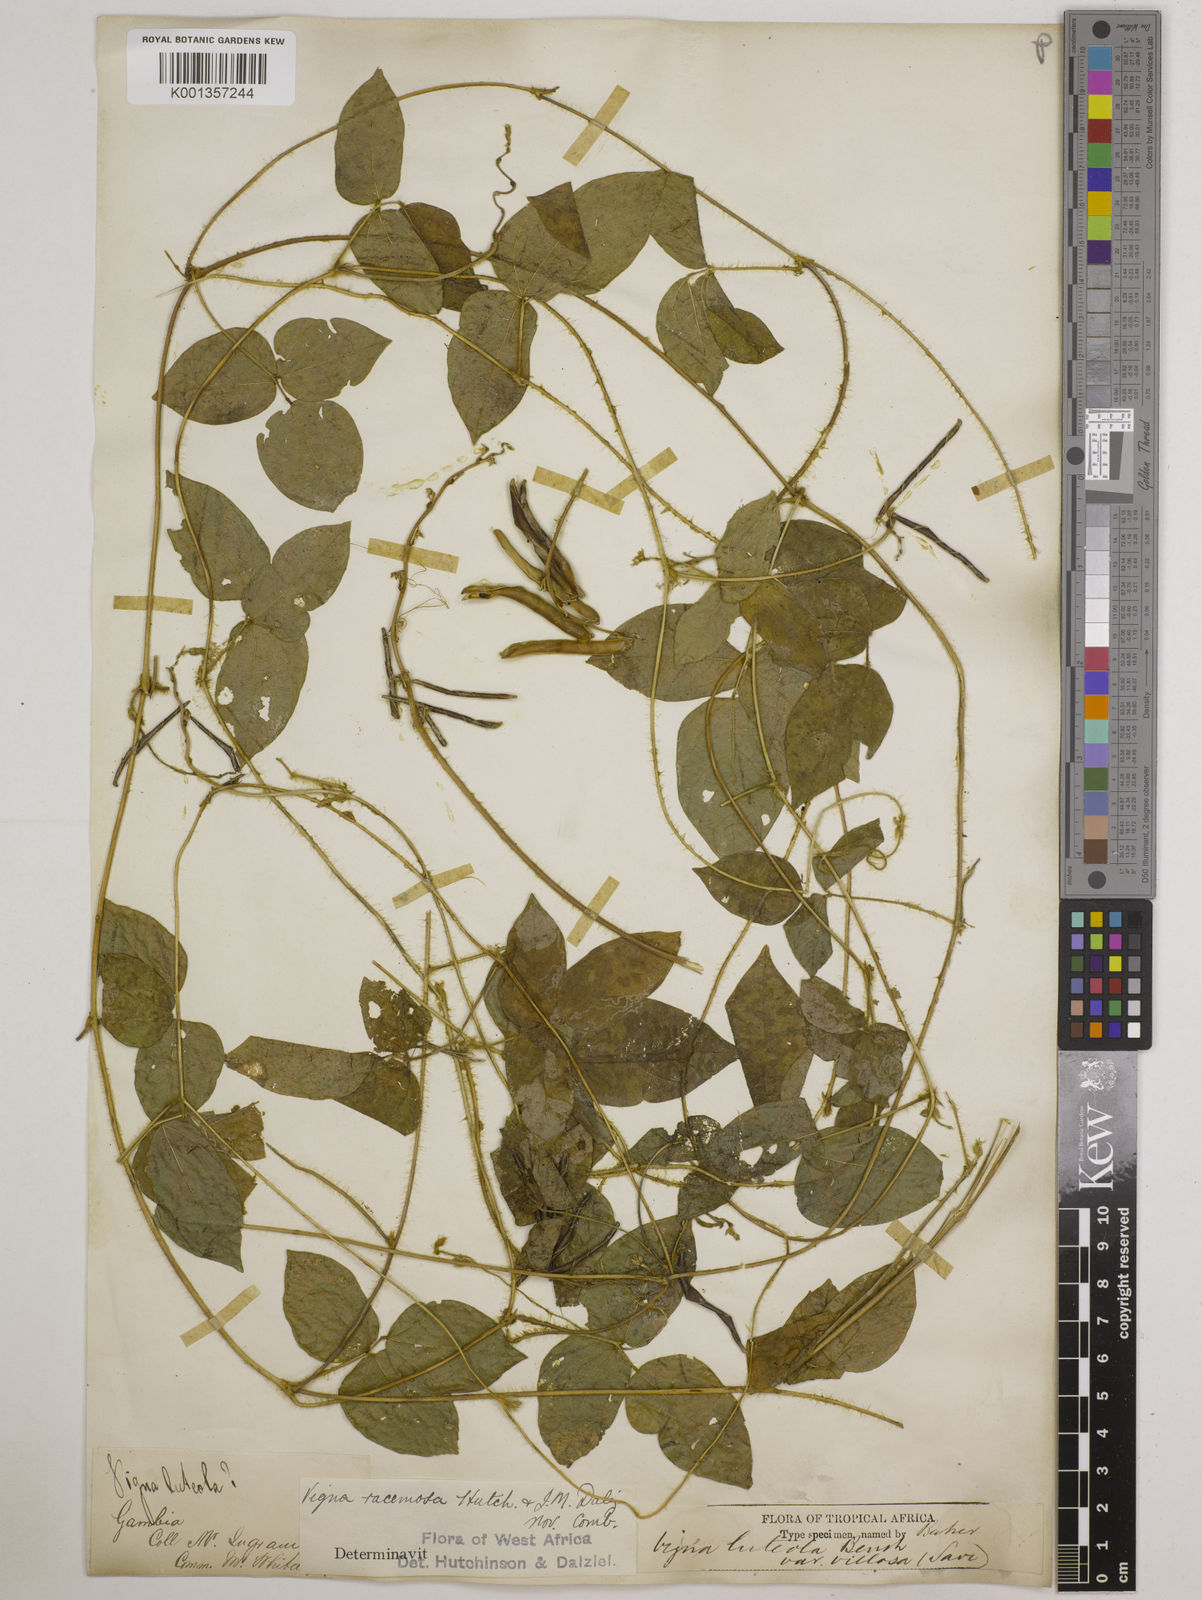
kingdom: Plantae
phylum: Tracheophyta
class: Magnoliopsida
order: Fabales
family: Fabaceae
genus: Vigna
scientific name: Vigna racemosa
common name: Beans not eaten
